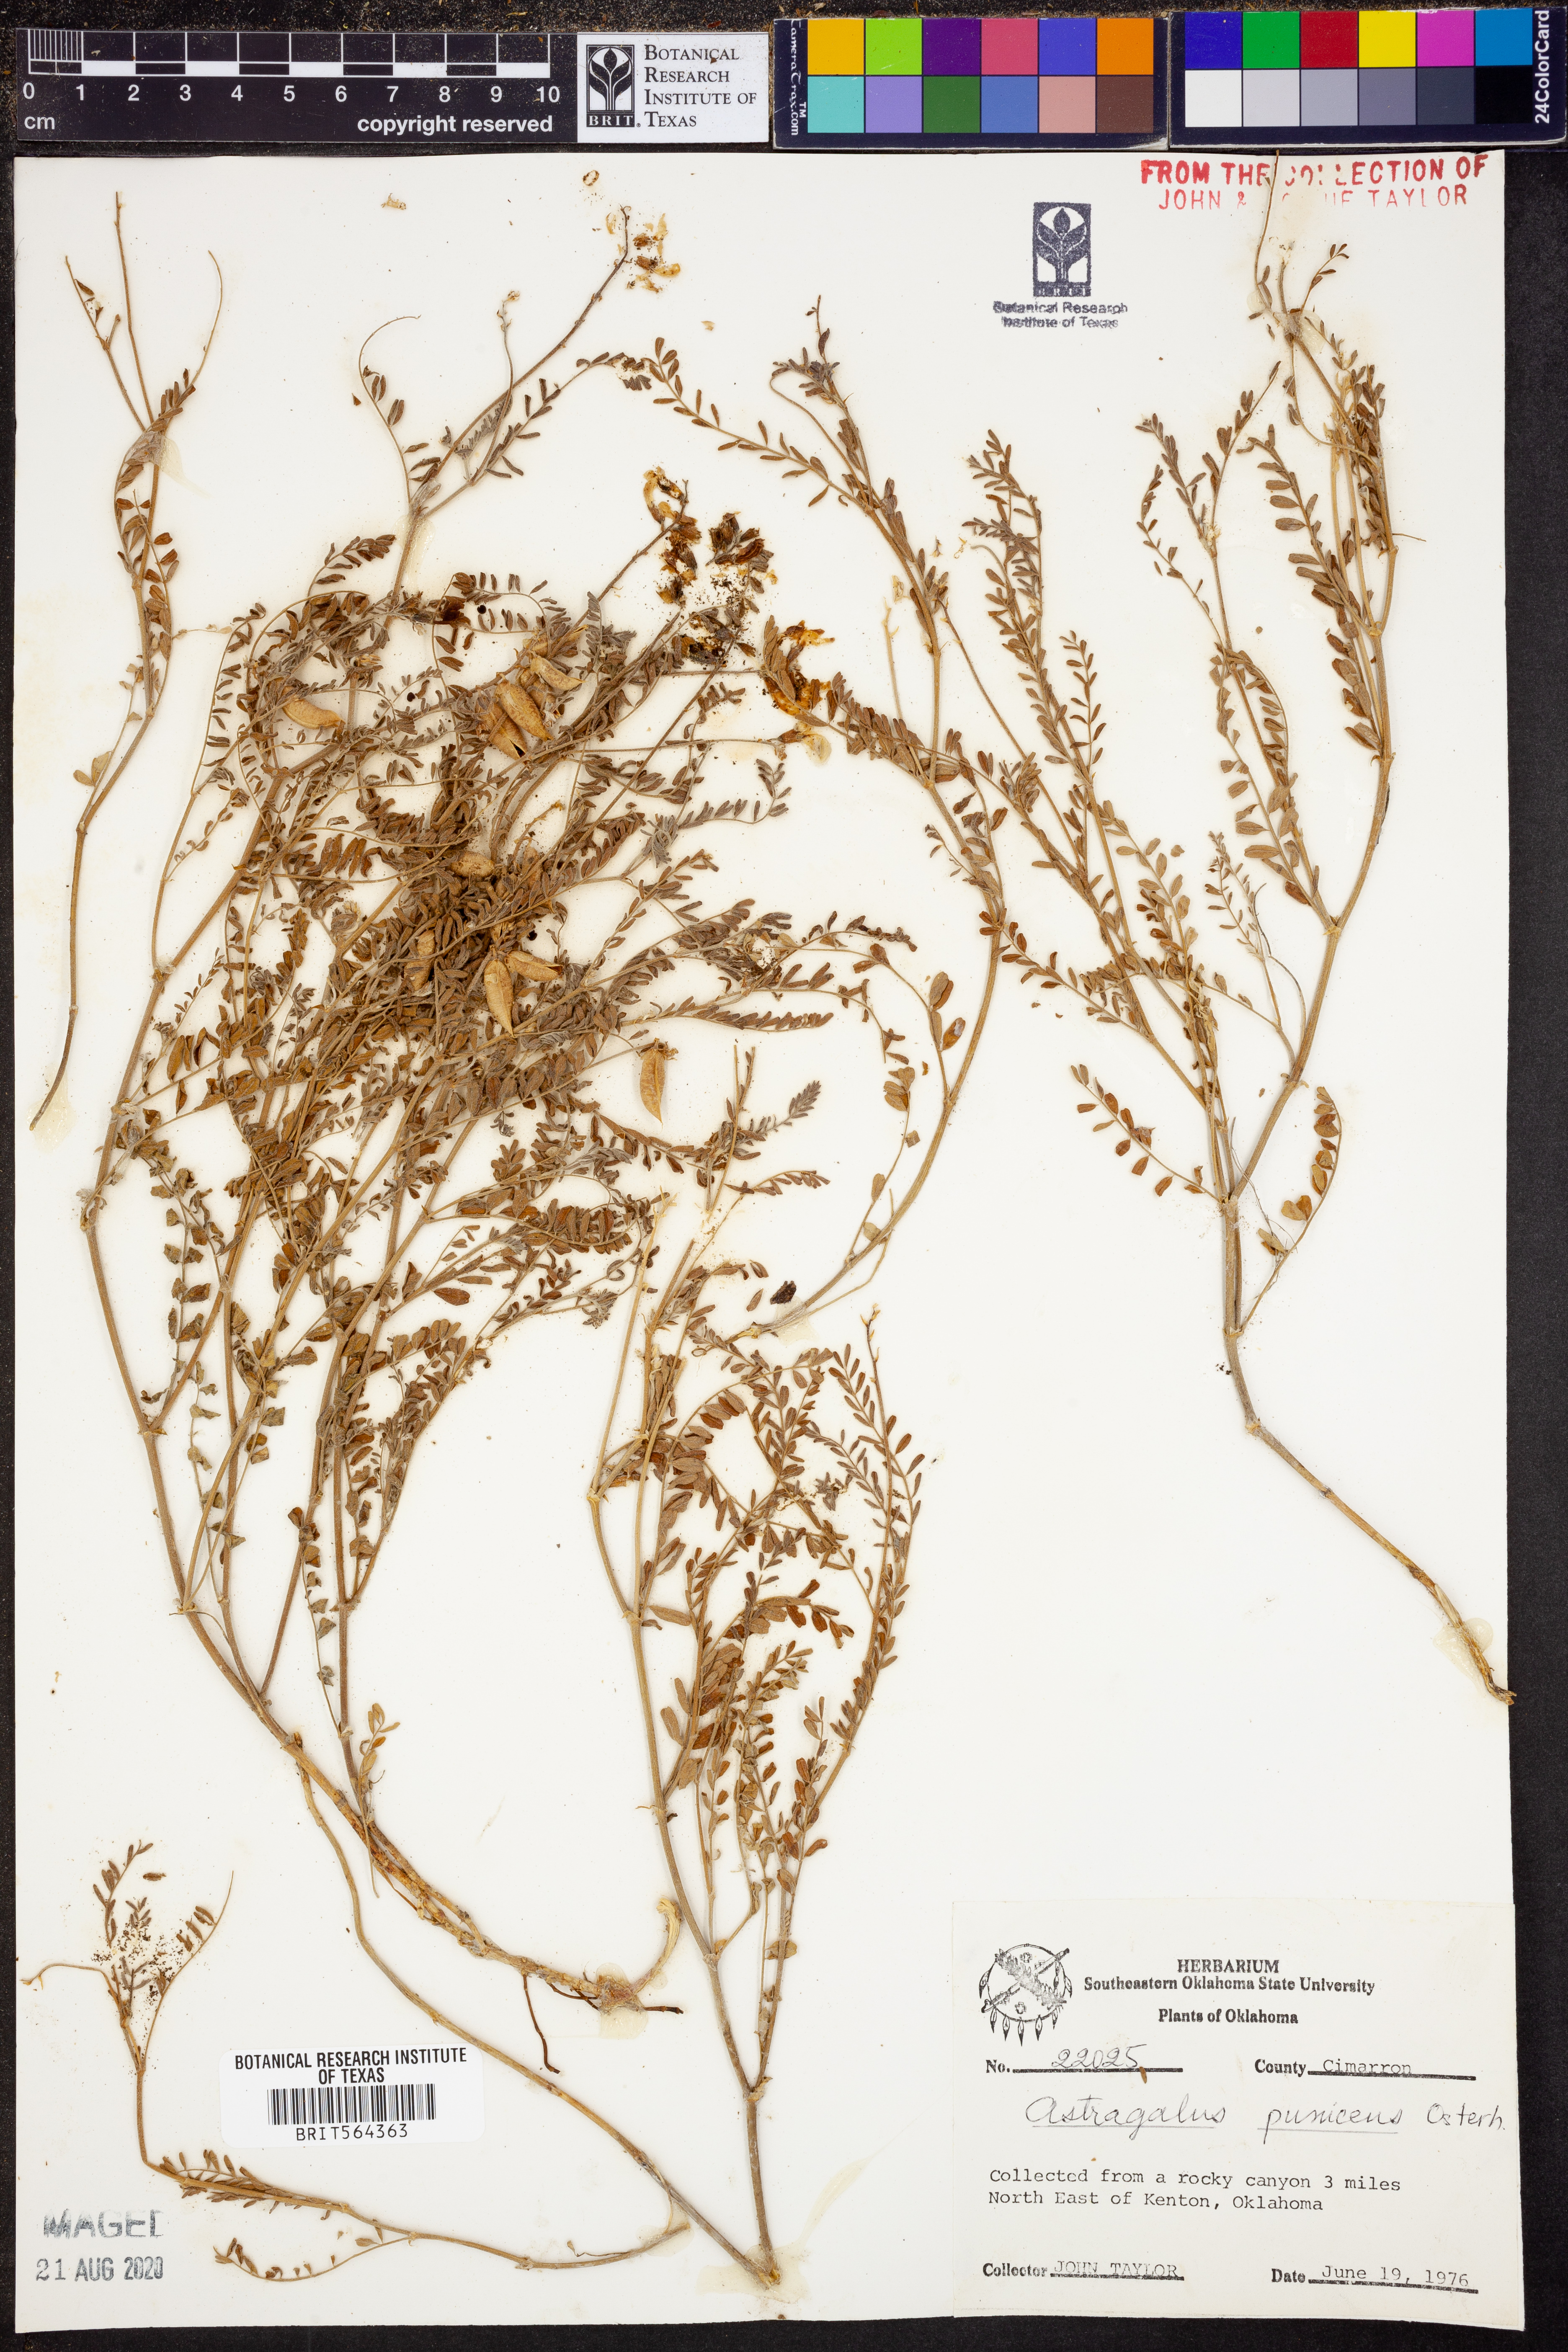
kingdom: Plantae
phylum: Tracheophyta
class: Magnoliopsida
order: Fabales
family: Fabaceae
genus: Astragalus
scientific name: Astragalus puniceus
